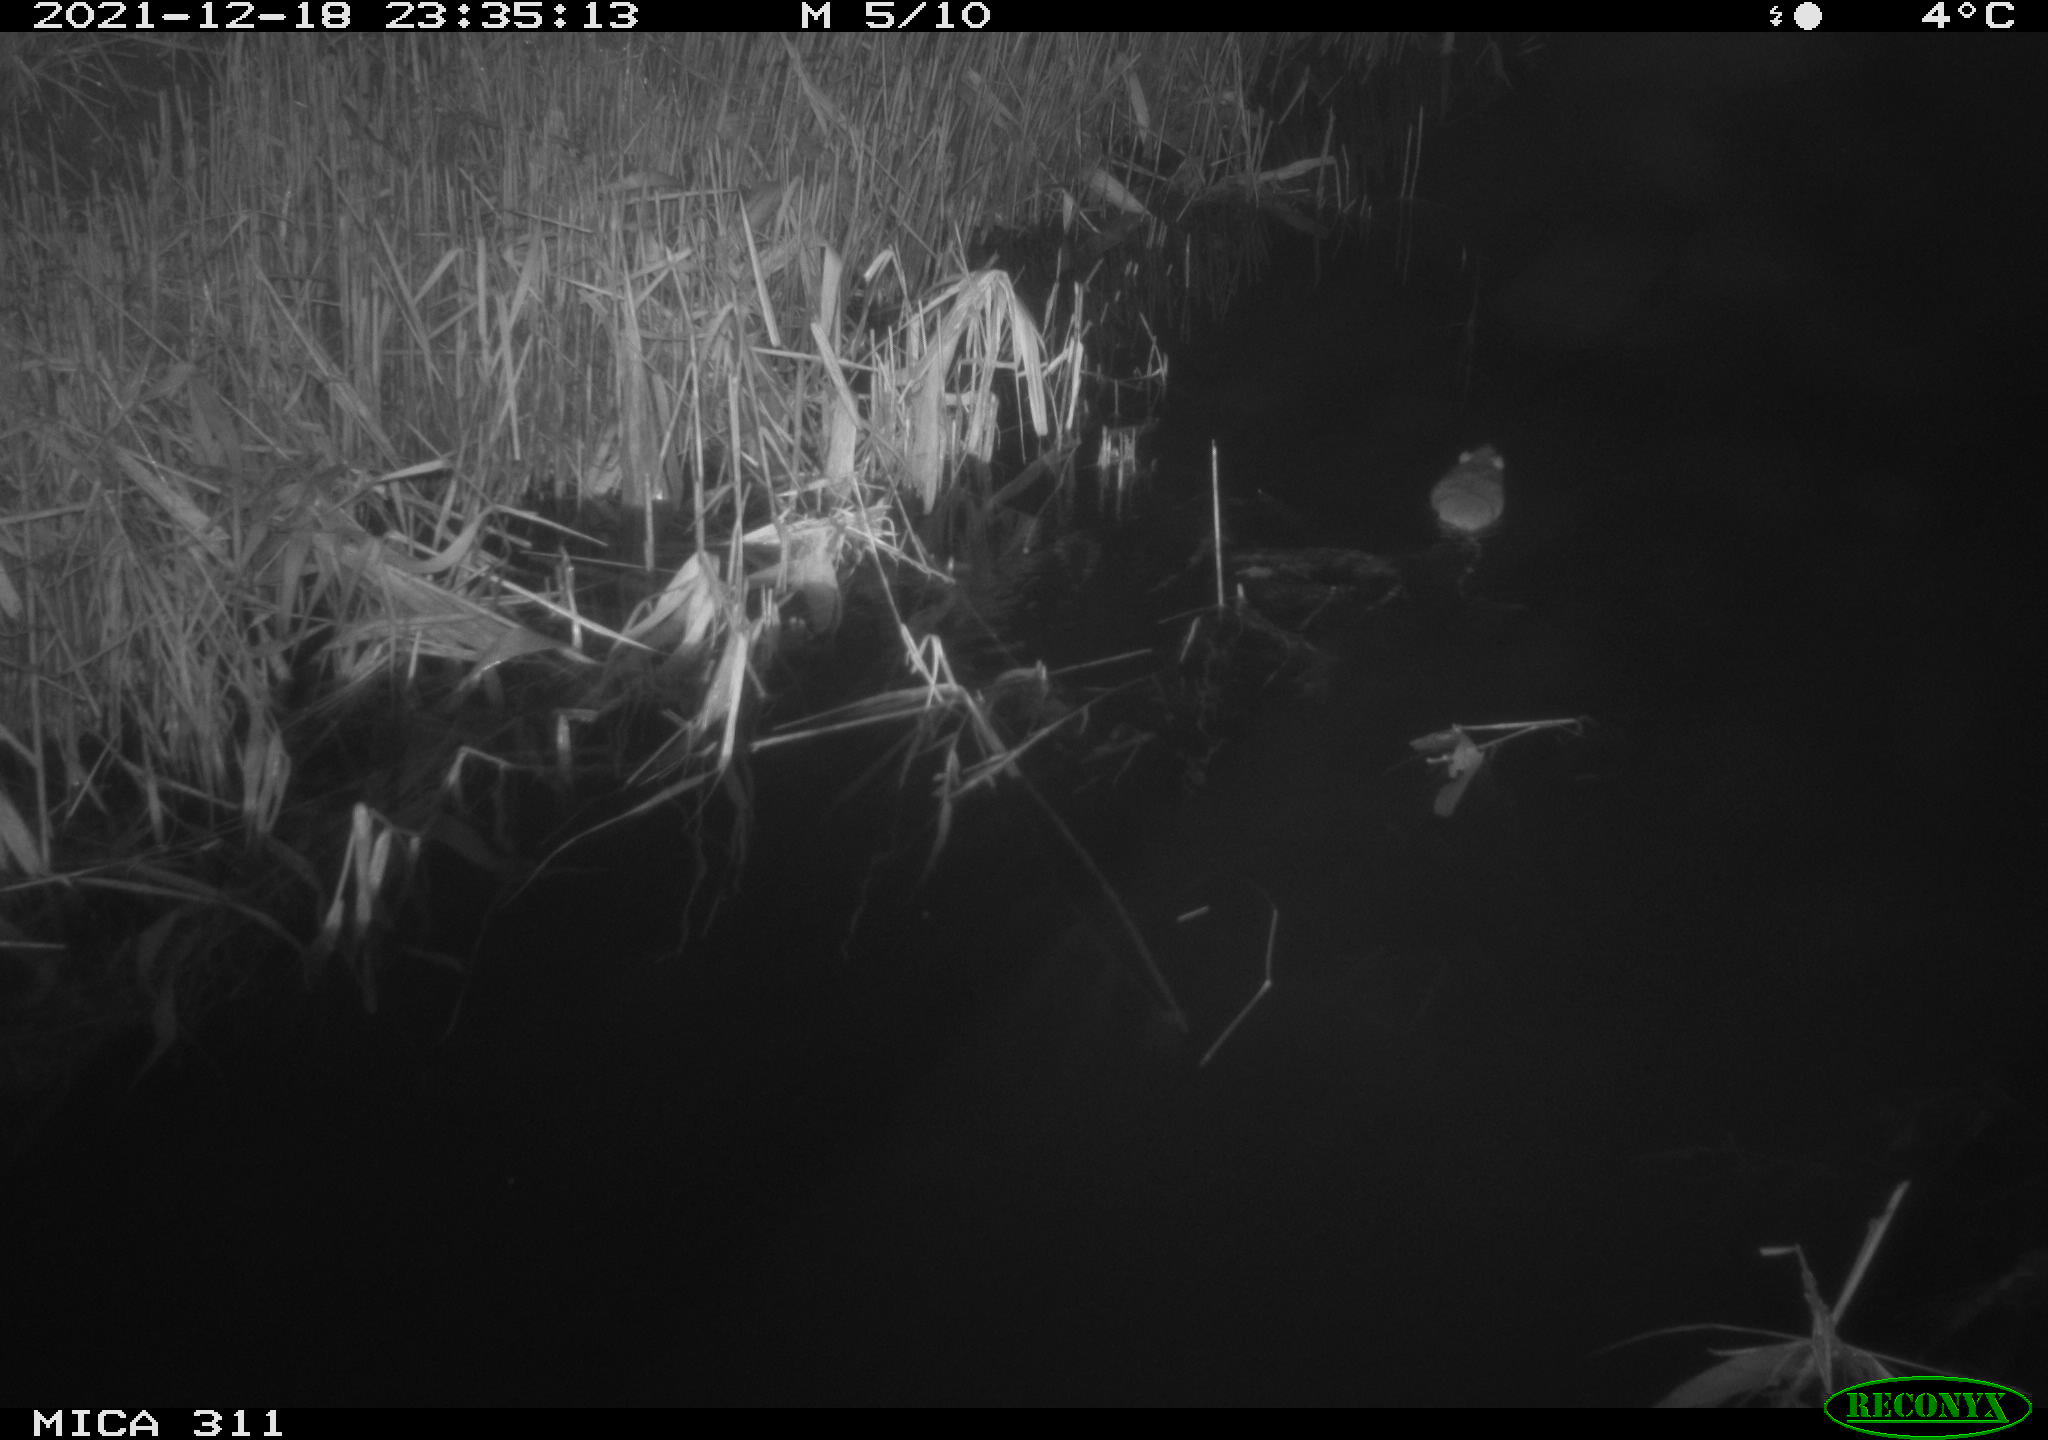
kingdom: Animalia
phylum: Chordata
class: Mammalia
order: Rodentia
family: Muridae
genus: Rattus
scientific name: Rattus norvegicus
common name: Brown rat
